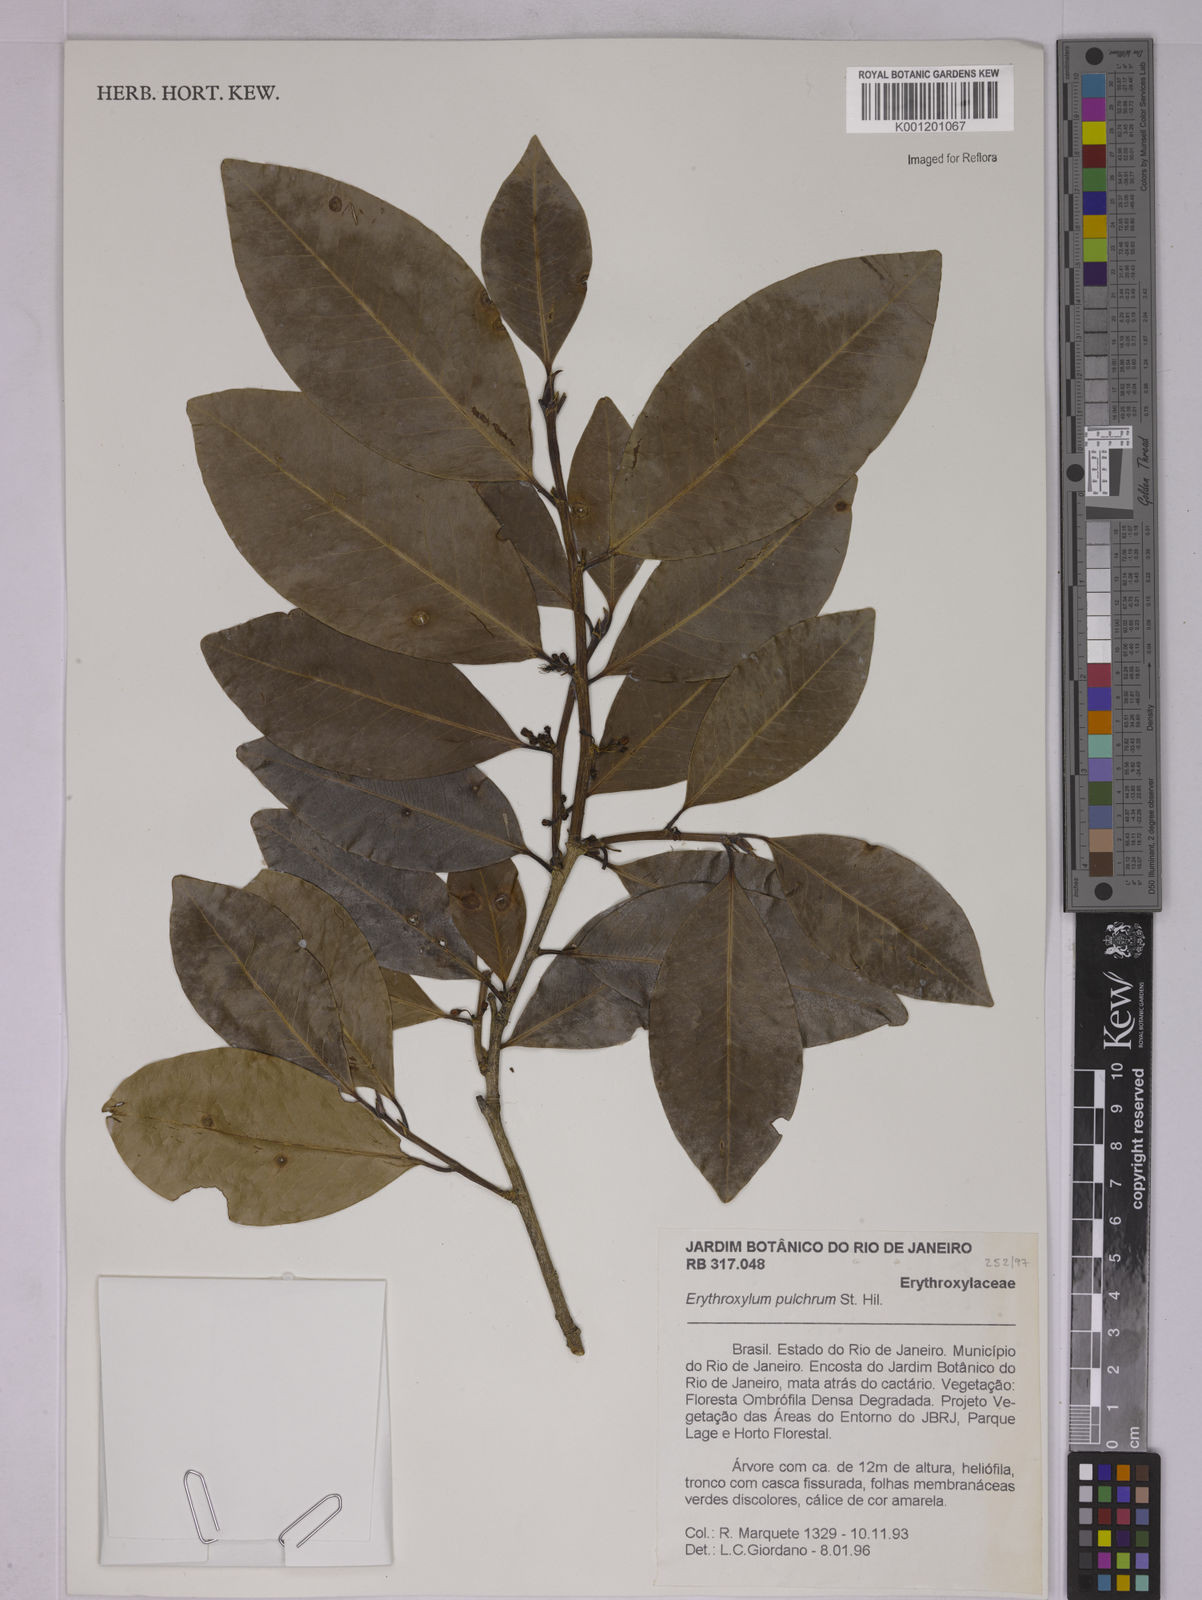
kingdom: Plantae
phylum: Tracheophyta
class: Magnoliopsida
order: Malpighiales
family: Erythroxylaceae
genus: Erythroxylum
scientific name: Erythroxylum pulchrum
